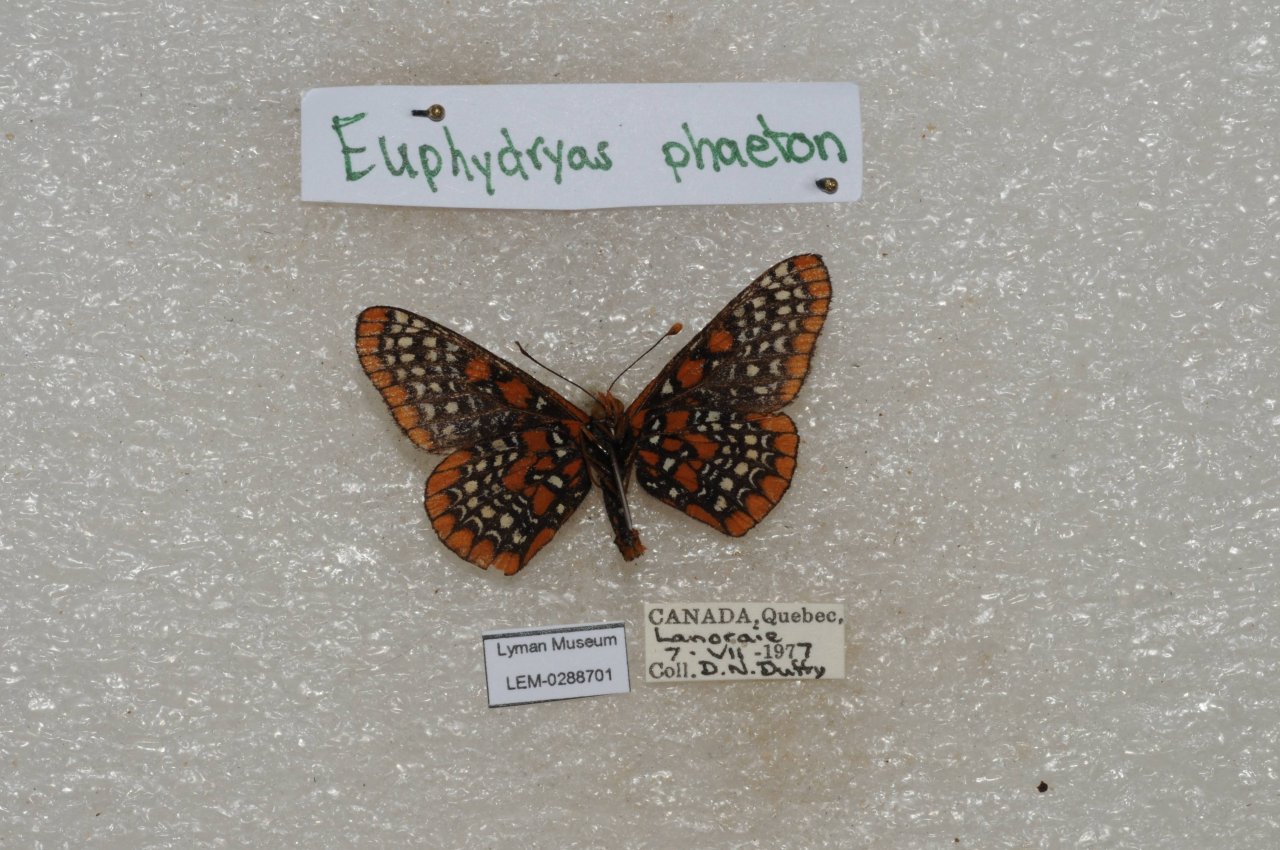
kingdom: Animalia
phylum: Arthropoda
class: Insecta
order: Lepidoptera
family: Nymphalidae
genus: Euphydryas
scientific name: Euphydryas phaeton
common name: Baltimore Checkerspot
